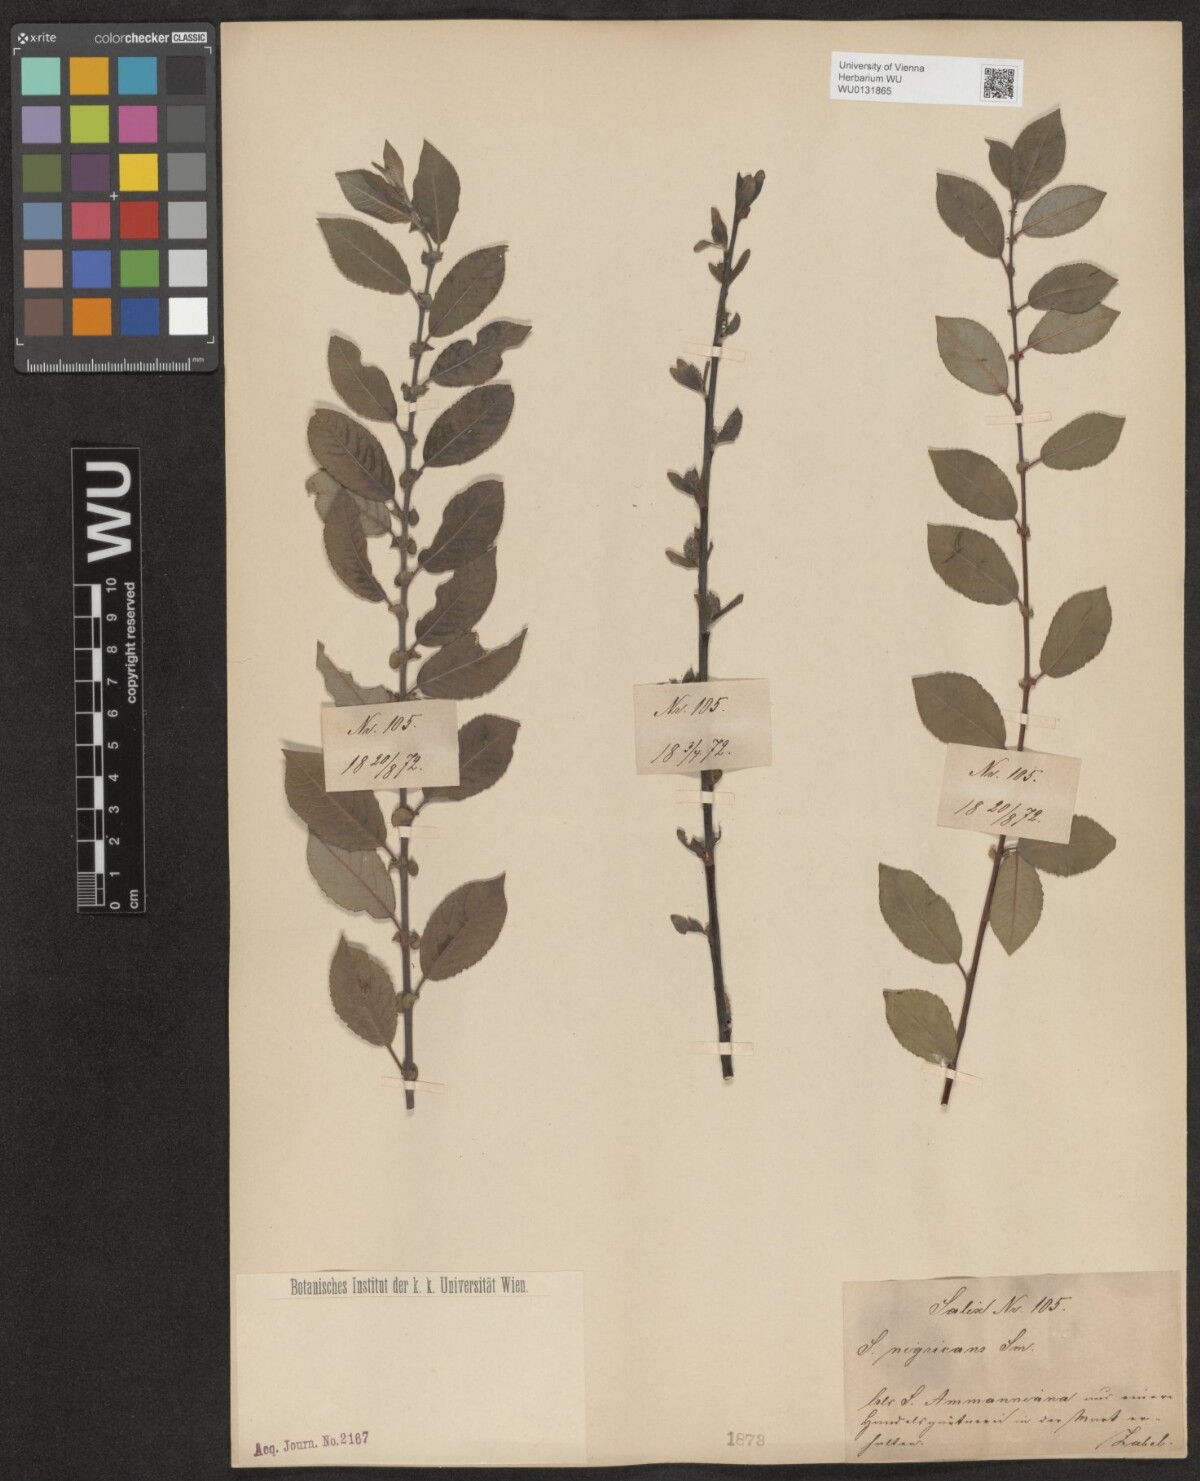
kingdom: Plantae
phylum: Tracheophyta
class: Magnoliopsida
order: Malpighiales
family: Salicaceae
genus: Salix
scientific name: Salix myrsinifolia
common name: Dark-leaved willow
